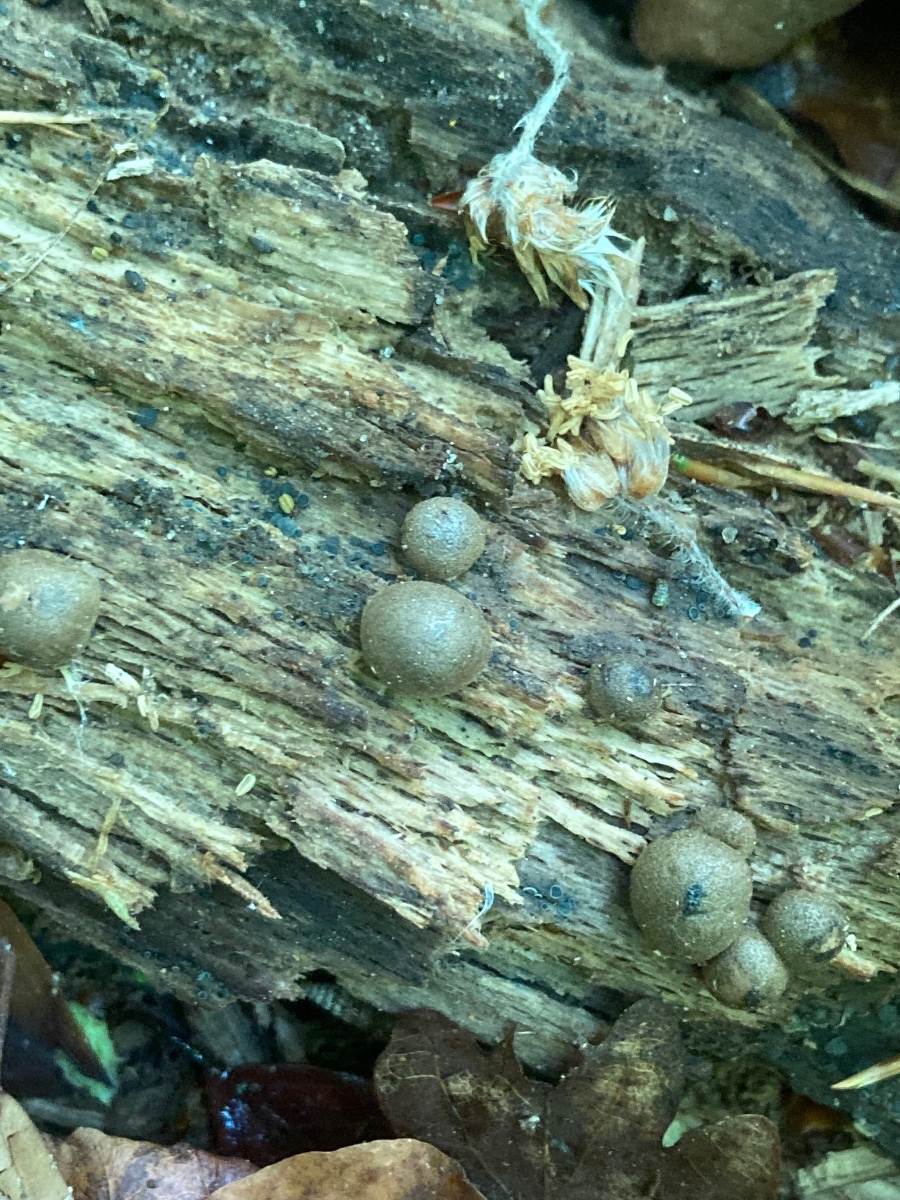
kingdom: Protozoa
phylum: Mycetozoa
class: Myxomycetes
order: Cribrariales
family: Tubiferaceae
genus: Lycogala
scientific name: Lycogala epidendrum
